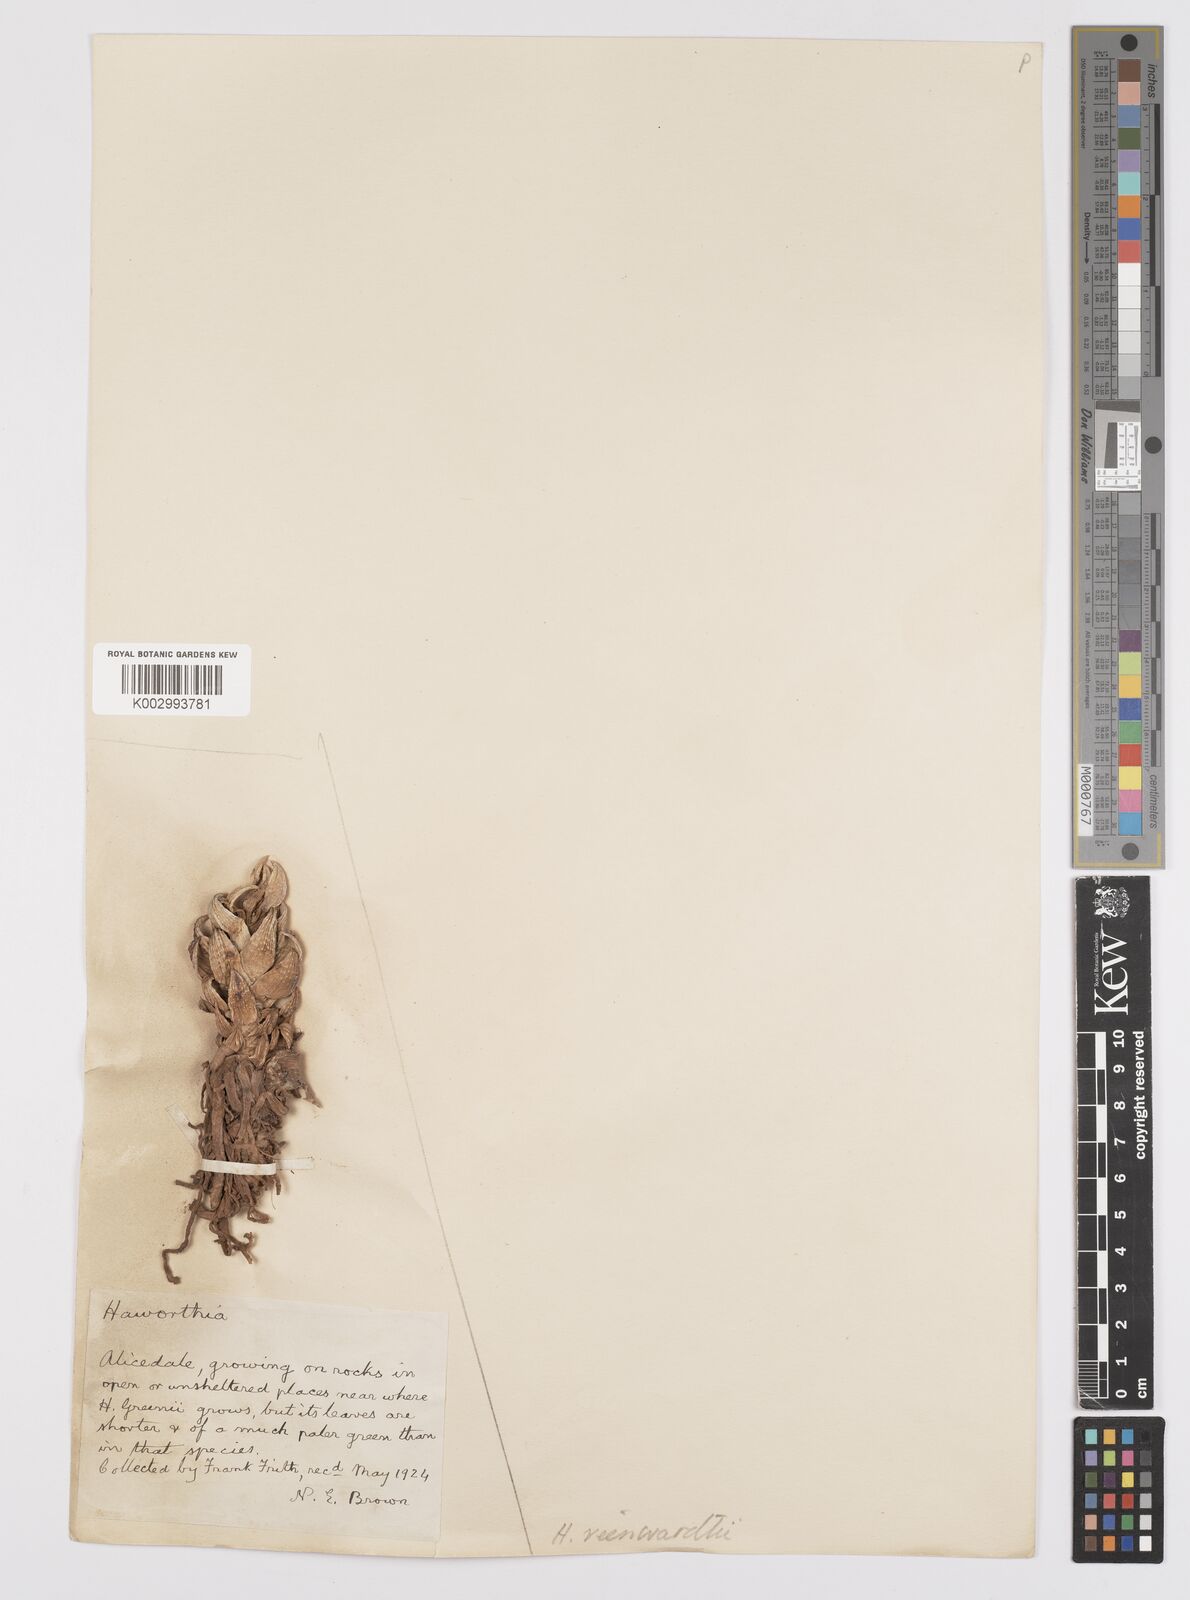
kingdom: Plantae
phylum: Tracheophyta
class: Liliopsida
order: Asparagales
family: Asphodelaceae
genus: Haworthiopsis
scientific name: Haworthiopsis reinwardtii
